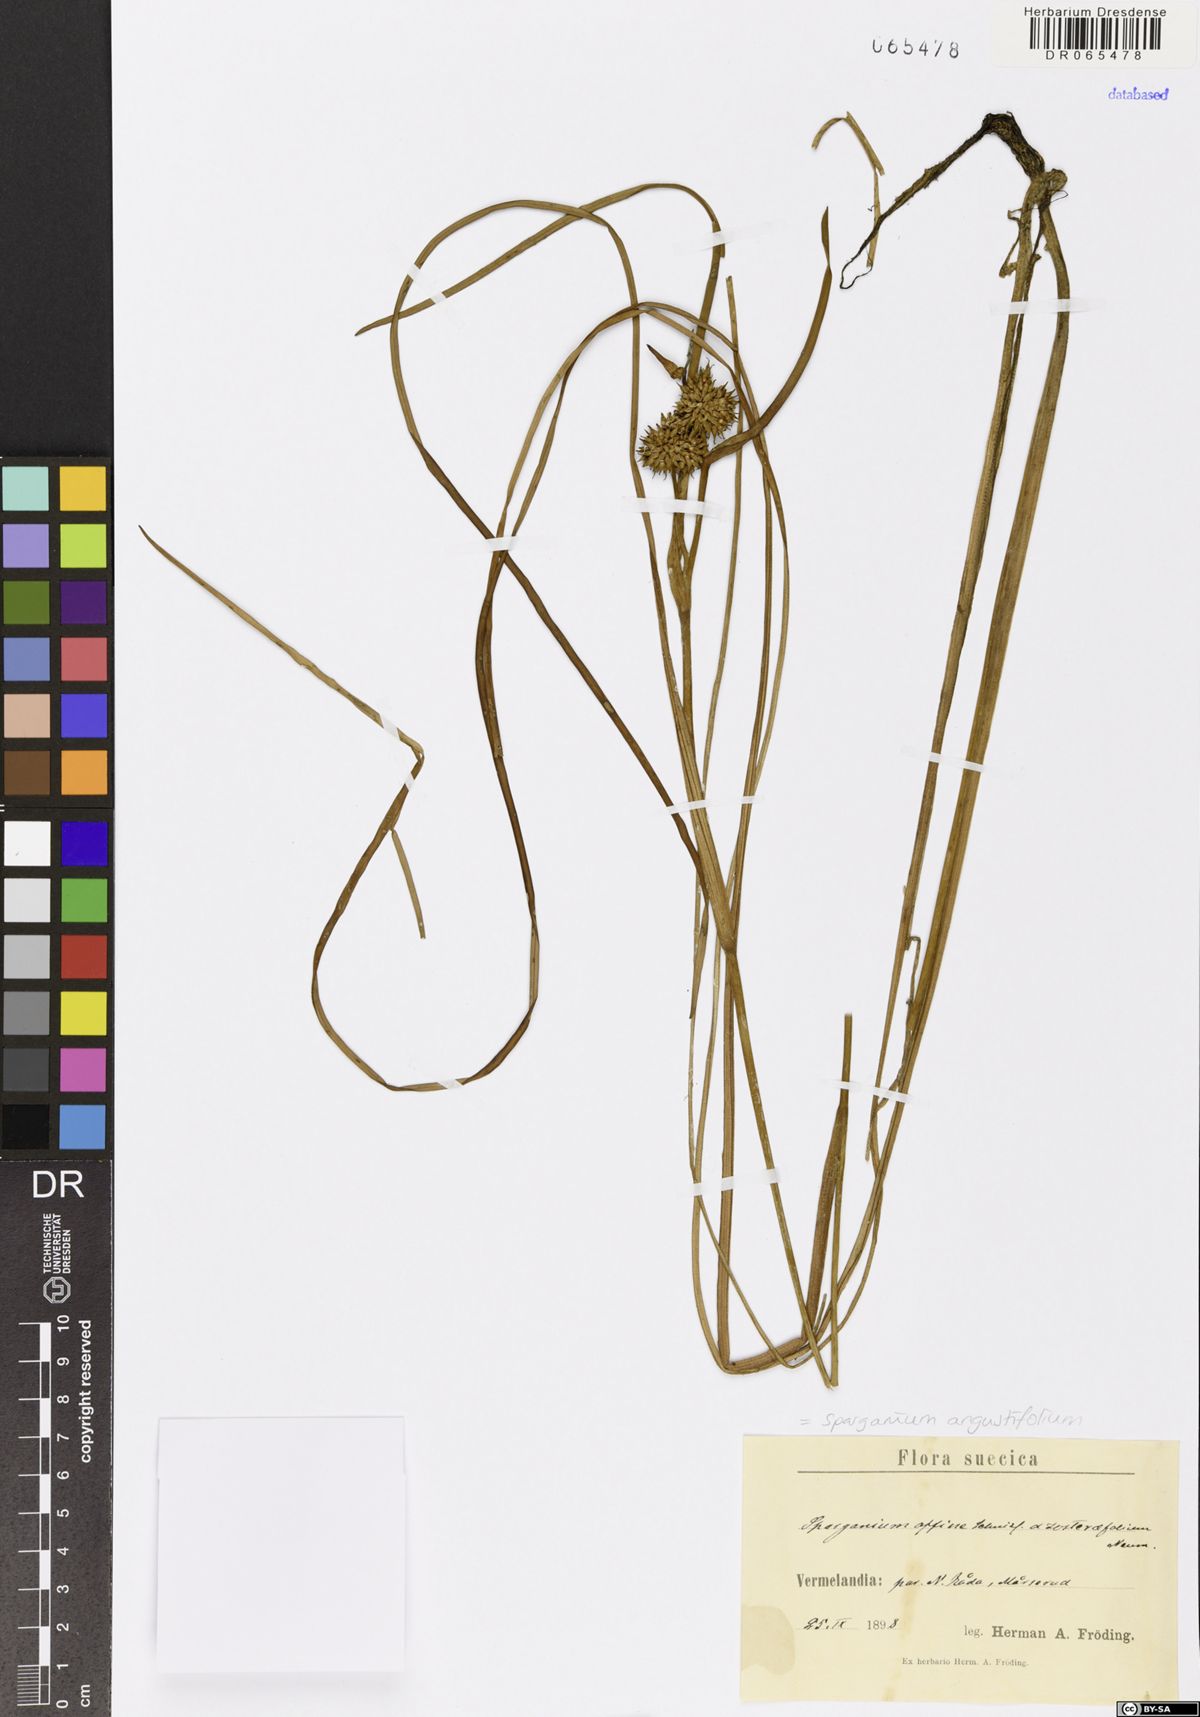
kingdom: Plantae
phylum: Tracheophyta
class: Liliopsida
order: Poales
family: Typhaceae
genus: Sparganium
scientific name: Sparganium angustifolium
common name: Floating bur-reed
